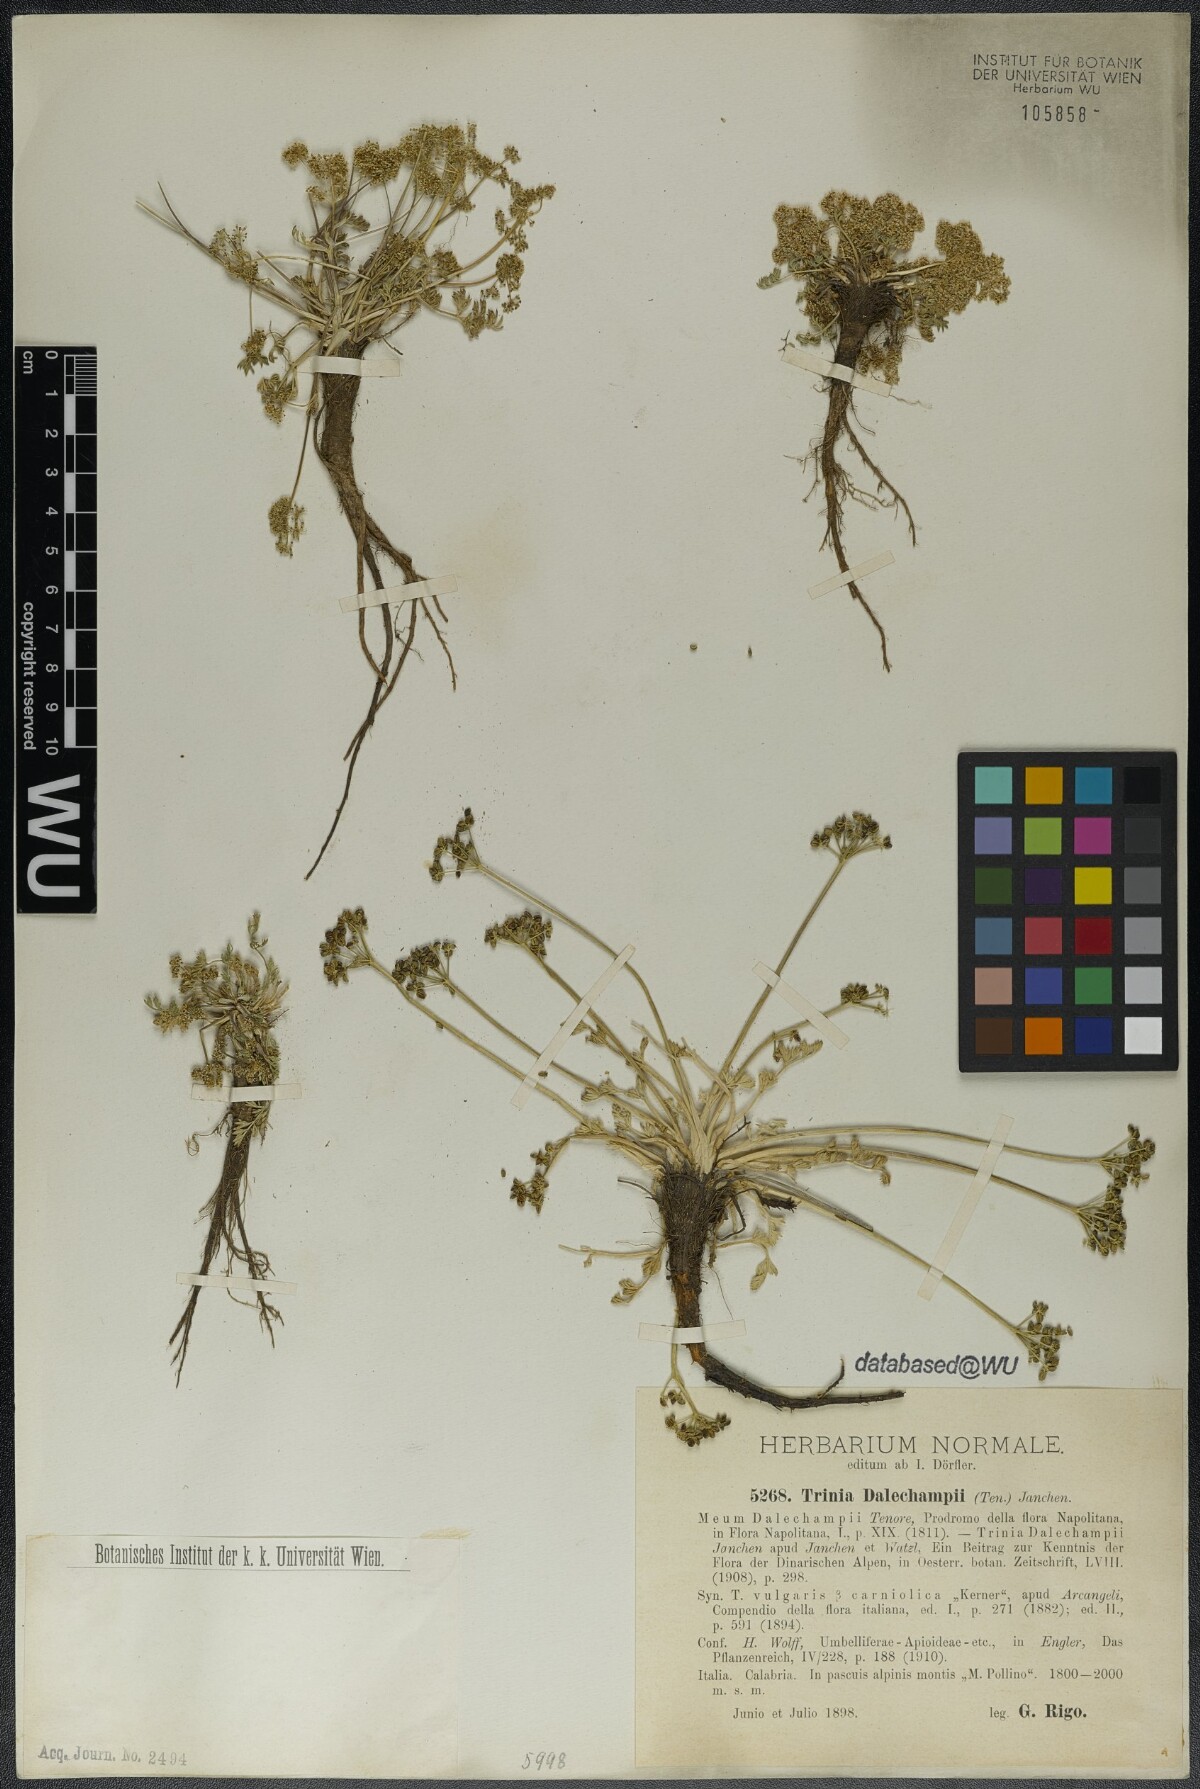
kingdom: Plantae
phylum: Tracheophyta
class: Magnoliopsida
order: Apiales
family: Apiaceae
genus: Trinia
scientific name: Trinia dalechampii
